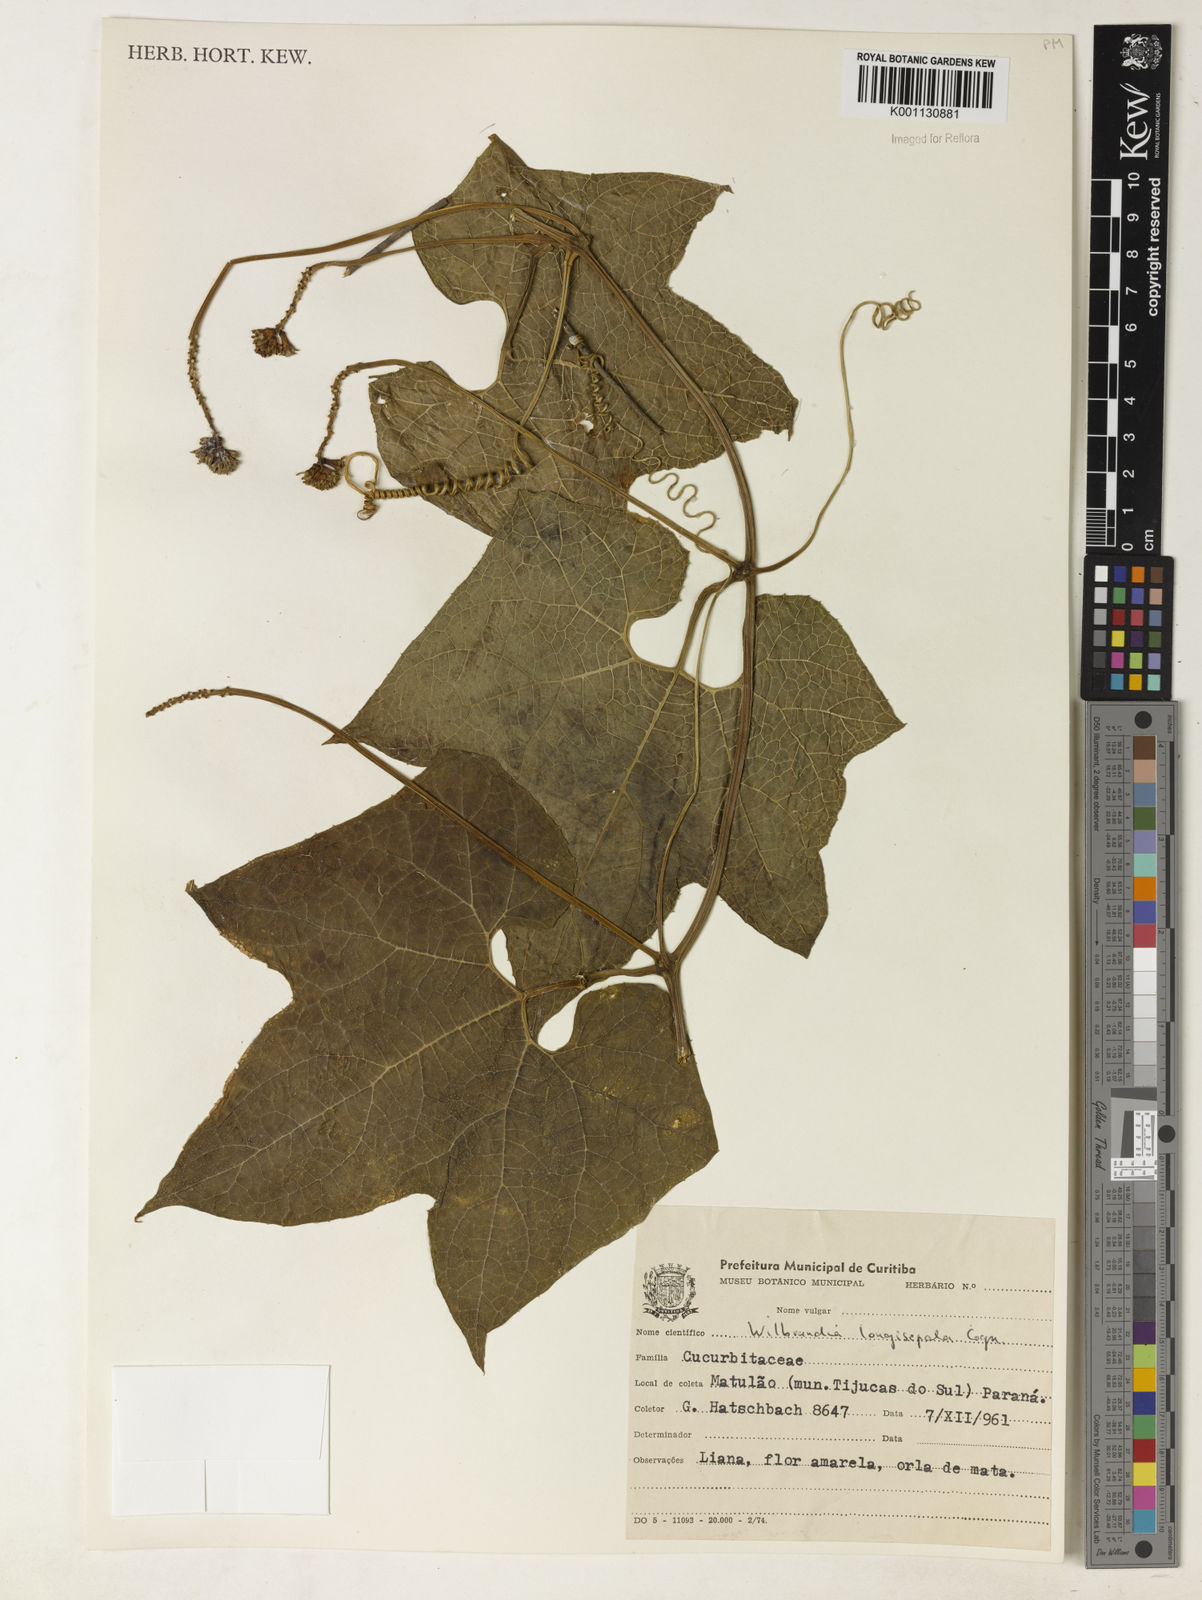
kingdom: Plantae
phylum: Tracheophyta
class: Magnoliopsida
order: Cucurbitales
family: Cucurbitaceae
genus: Wilbrandia
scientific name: Wilbrandia longisepala
